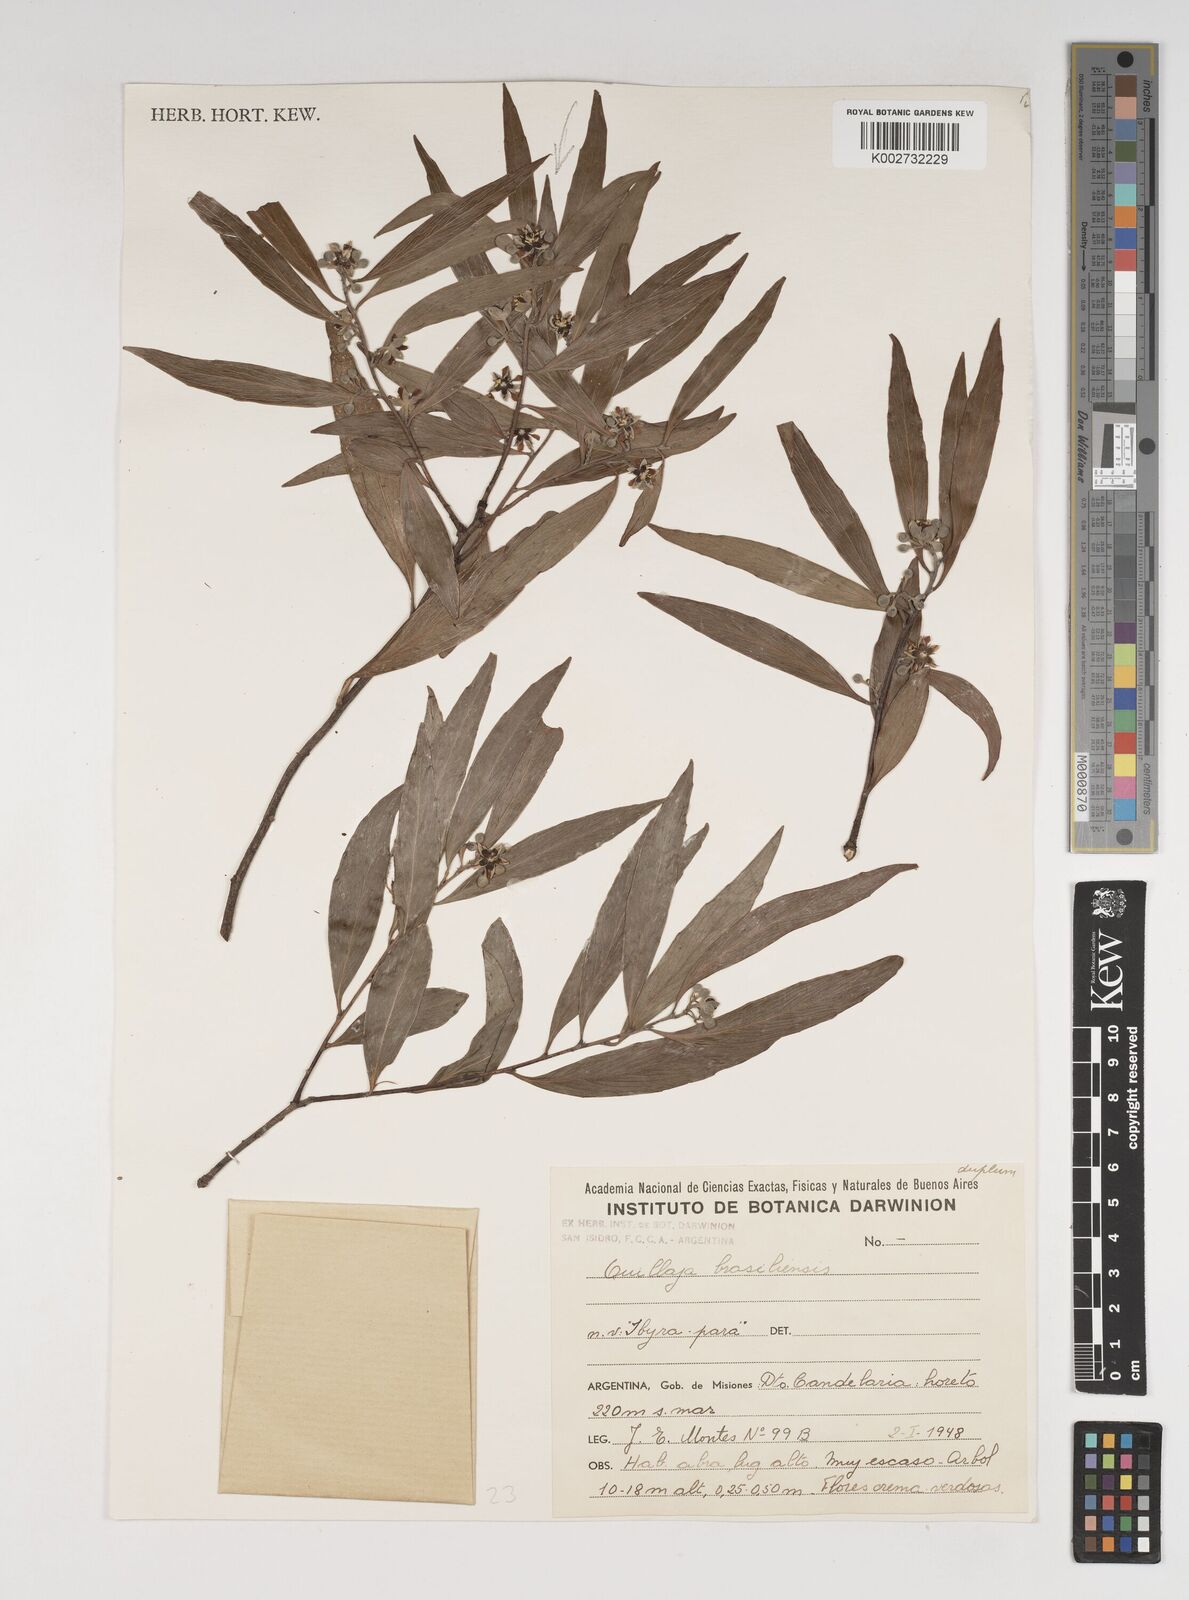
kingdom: Plantae
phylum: Tracheophyta
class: Magnoliopsida
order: Fabales
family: Quillajaceae
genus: Quillaja
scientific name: Quillaja
